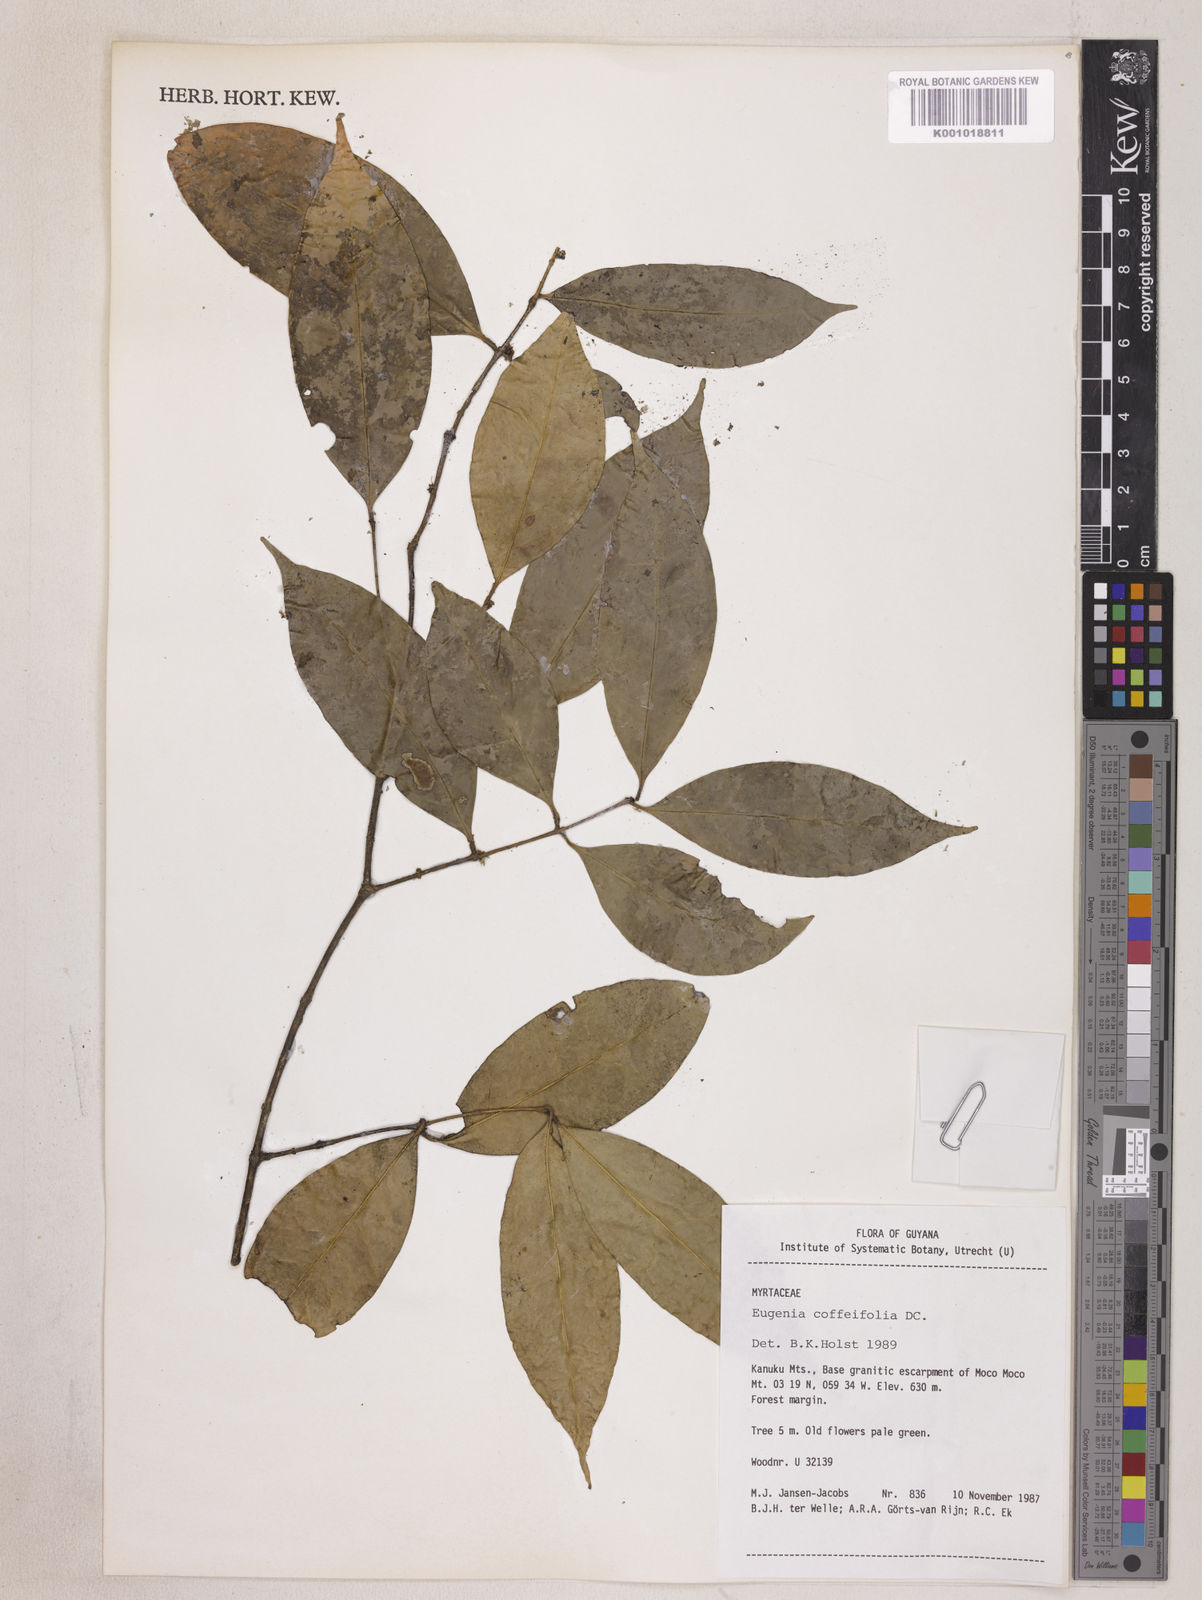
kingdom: Plantae
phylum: Tracheophyta
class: Magnoliopsida
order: Myrtales
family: Myrtaceae
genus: Eugenia
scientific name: Eugenia coffeifolia
